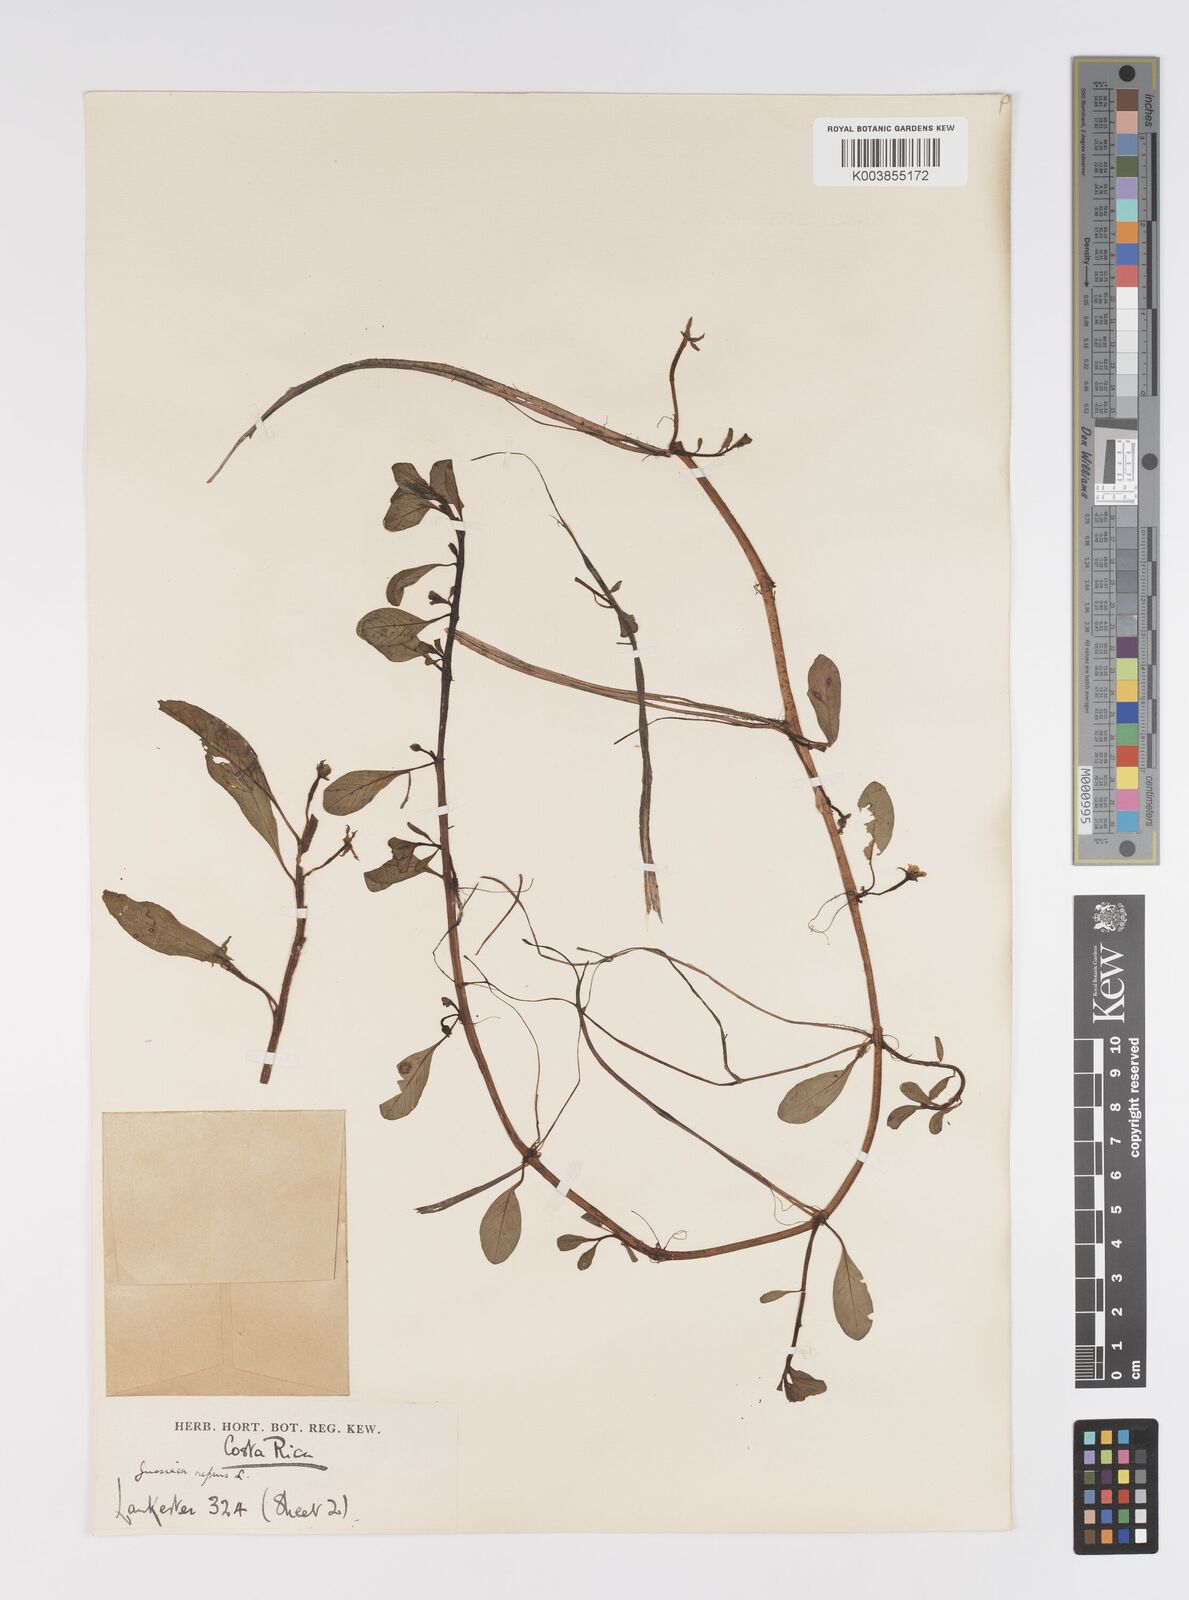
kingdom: Plantae
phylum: Tracheophyta
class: Magnoliopsida
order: Myrtales
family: Onagraceae
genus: Ludwigia
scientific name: Ludwigia adscendens
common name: Creeping water primrose
